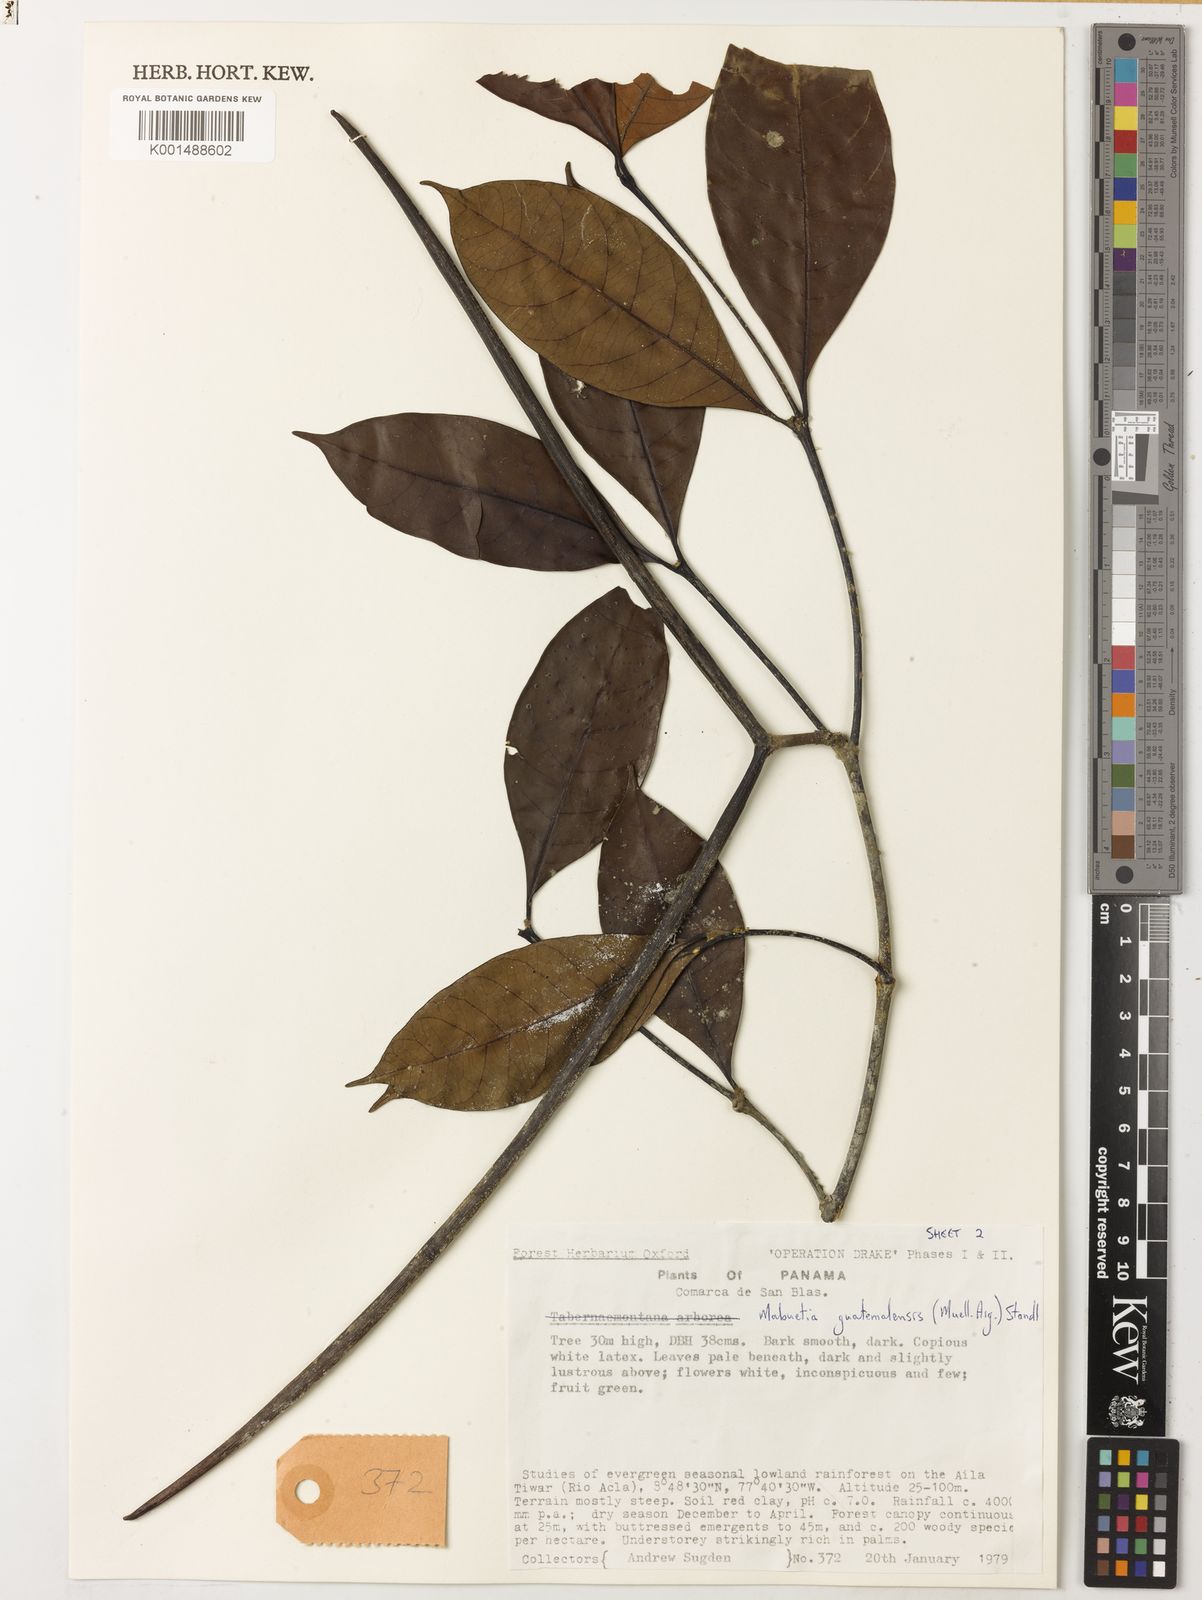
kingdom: Plantae
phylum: Tracheophyta
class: Magnoliopsida
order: Gentianales
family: Apocynaceae
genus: Malouetia
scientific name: Malouetia guatemalensis
